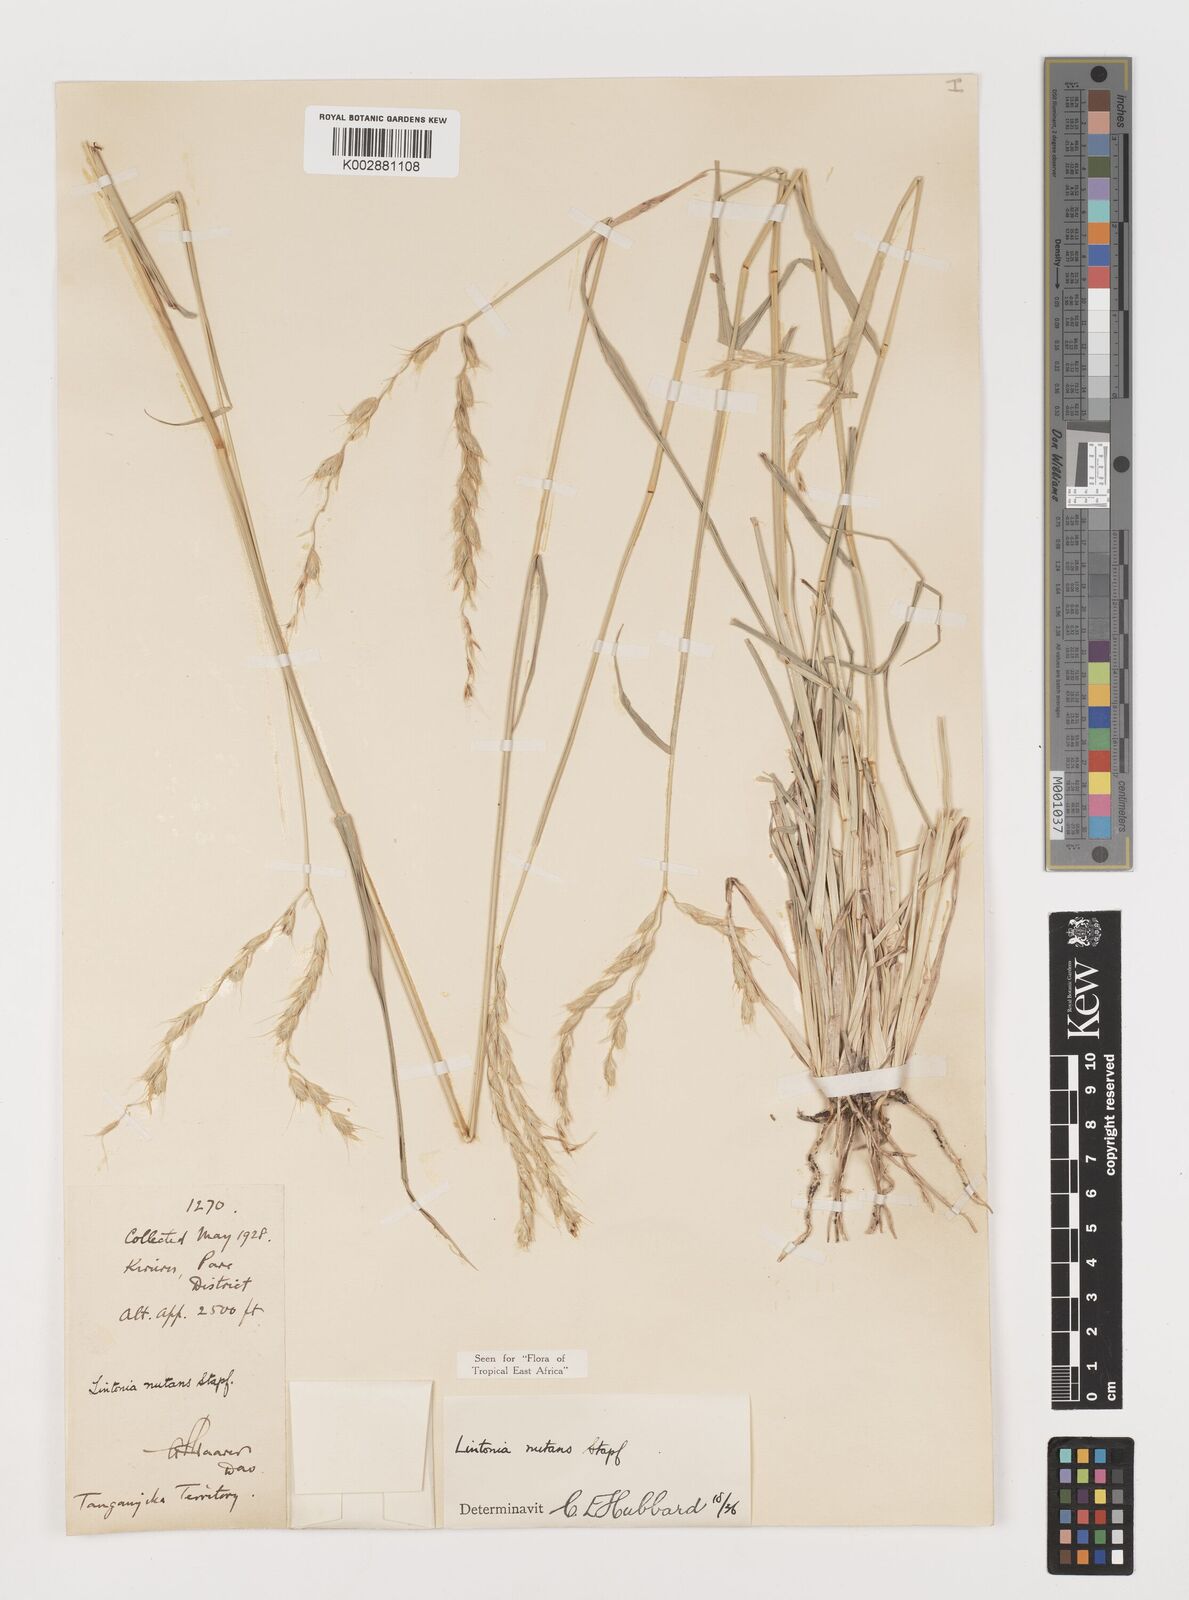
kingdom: Plantae
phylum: Tracheophyta
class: Liliopsida
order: Poales
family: Poaceae
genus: Chloris
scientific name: Chloris nutans
